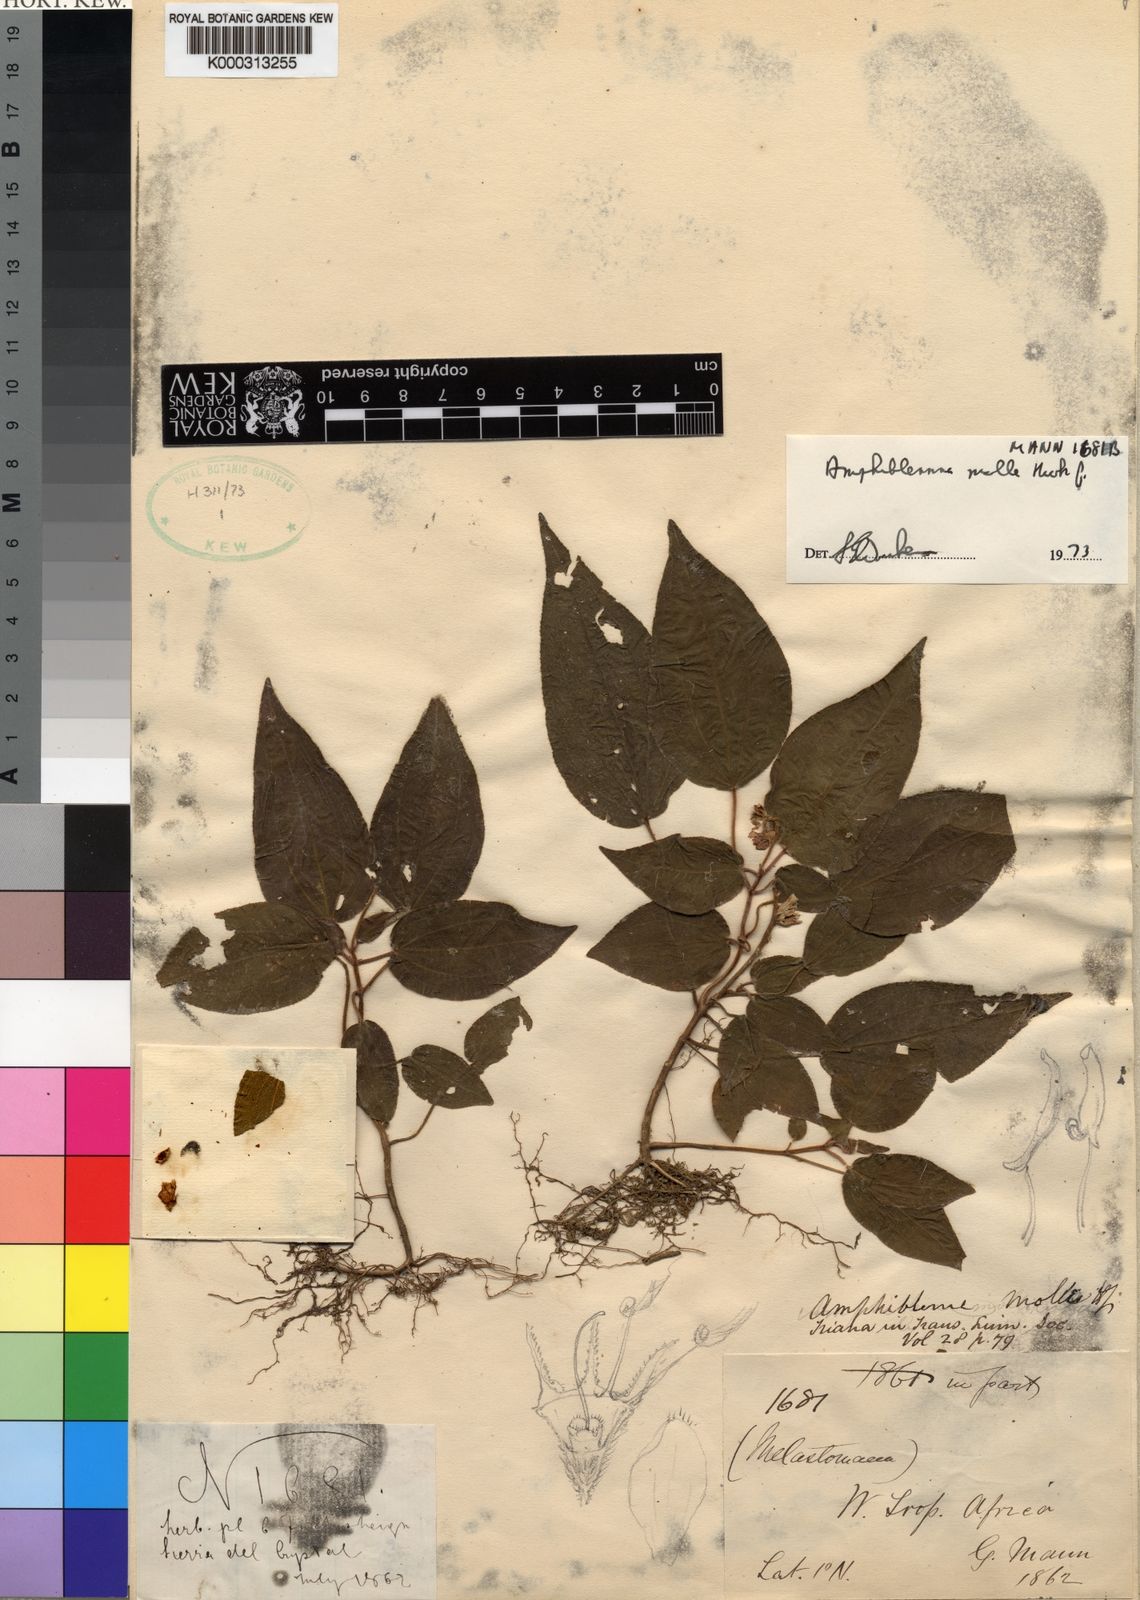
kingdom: Plantae
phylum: Tracheophyta
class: Magnoliopsida
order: Myrtales
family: Melastomataceae
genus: Amphiblemma
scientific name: Amphiblemma molle
